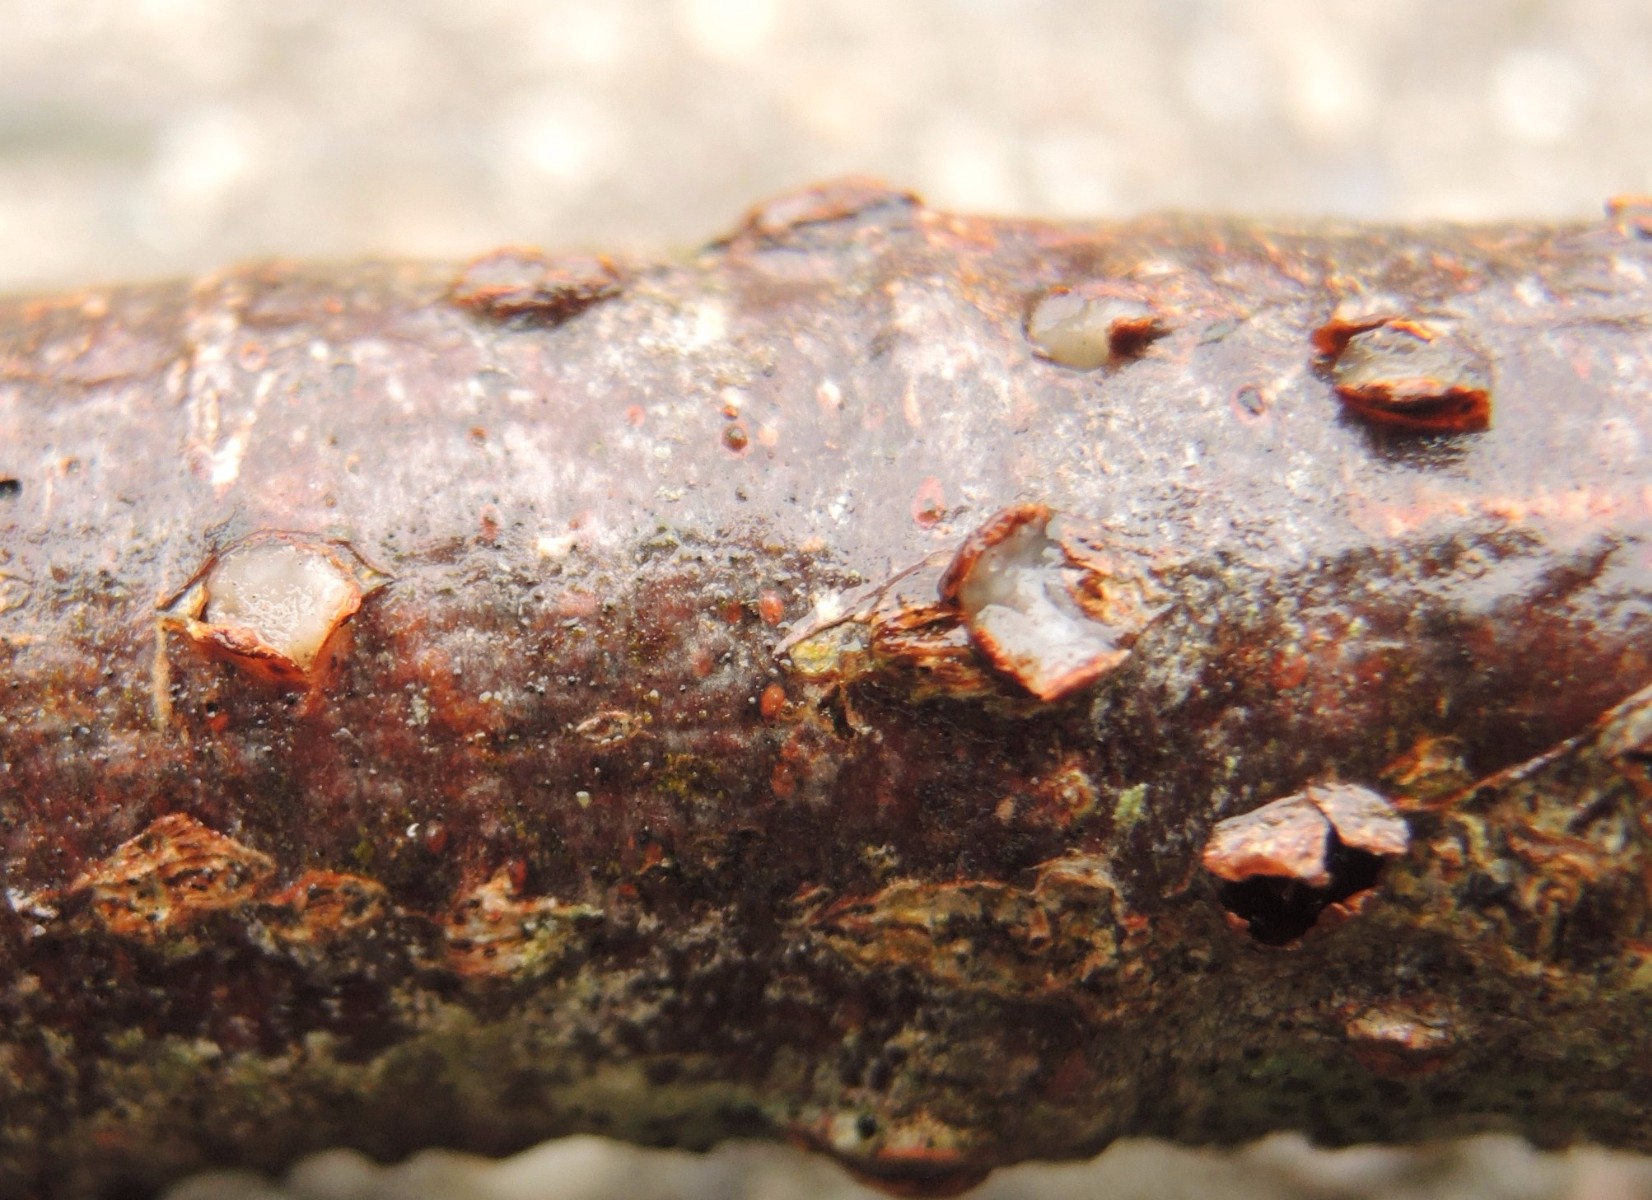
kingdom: Fungi
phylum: Basidiomycota
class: Pucciniomycetes
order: Platygloeales
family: Platygloeaceae
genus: Platygloea
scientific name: Platygloea disciformis
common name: linde-slimklat
